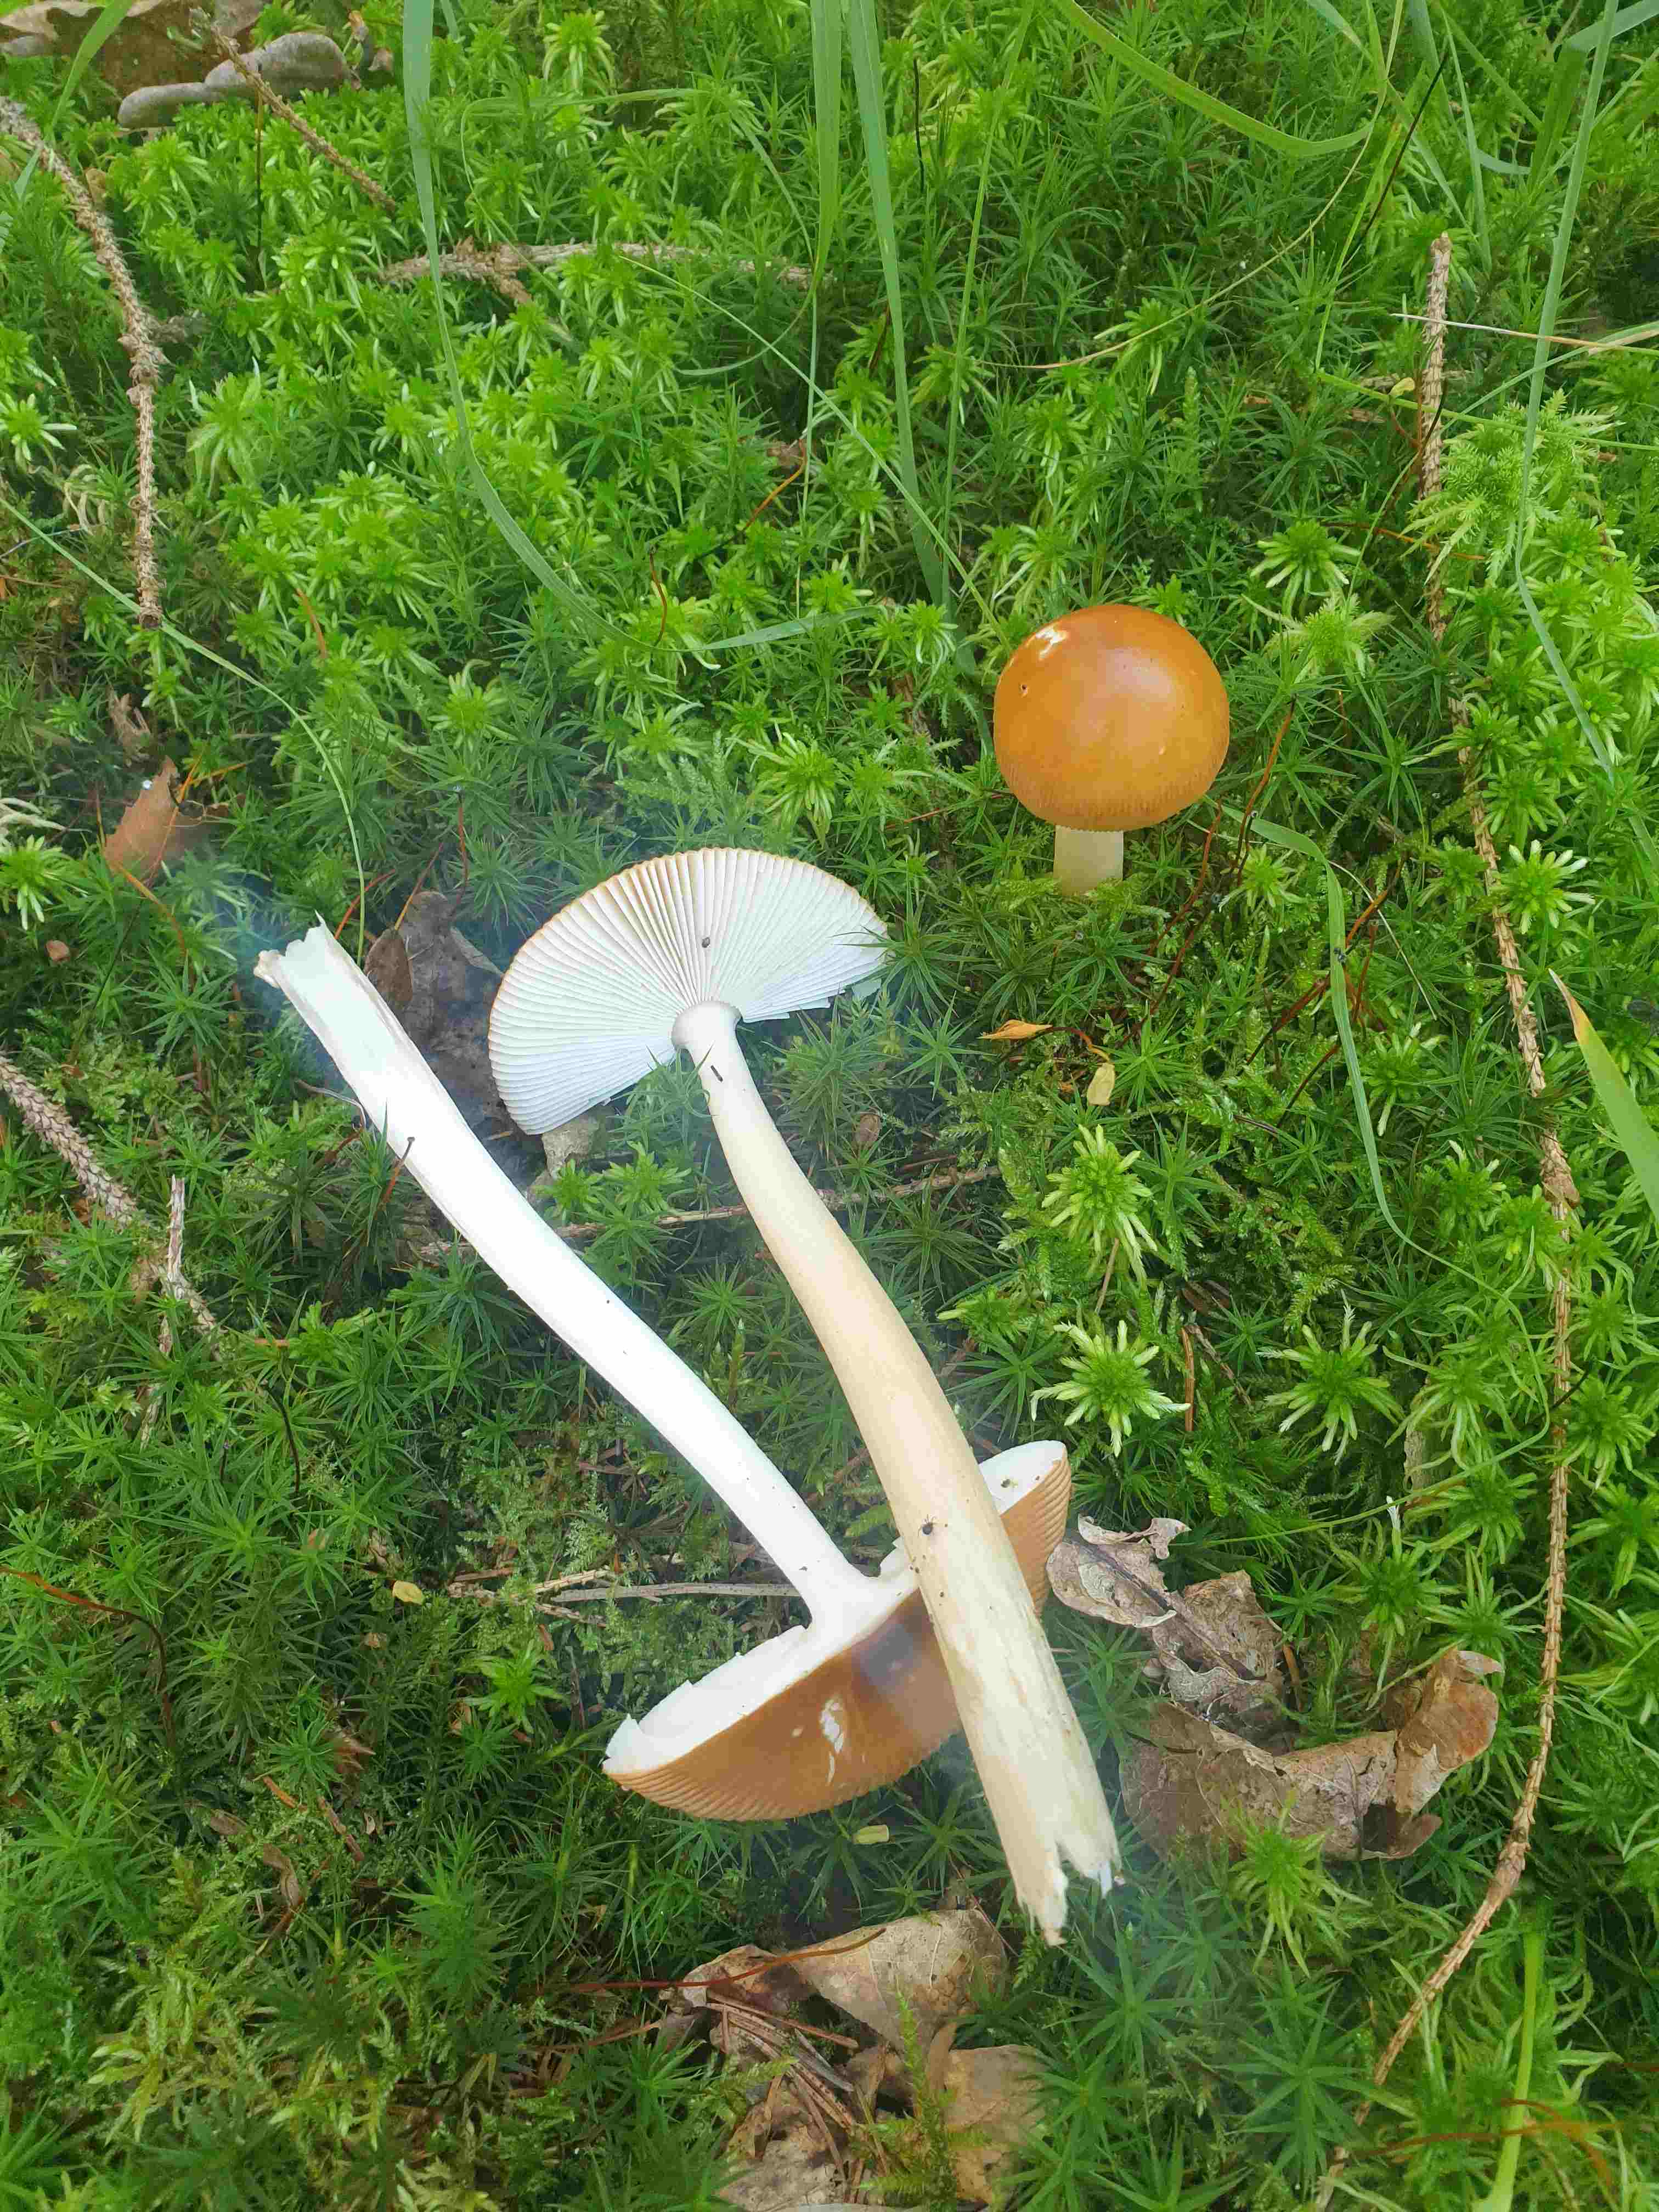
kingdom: Fungi
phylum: Basidiomycota
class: Agaricomycetes
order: Agaricales
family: Amanitaceae
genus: Amanita
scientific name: Amanita fulva
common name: brun kam-fluesvamp
